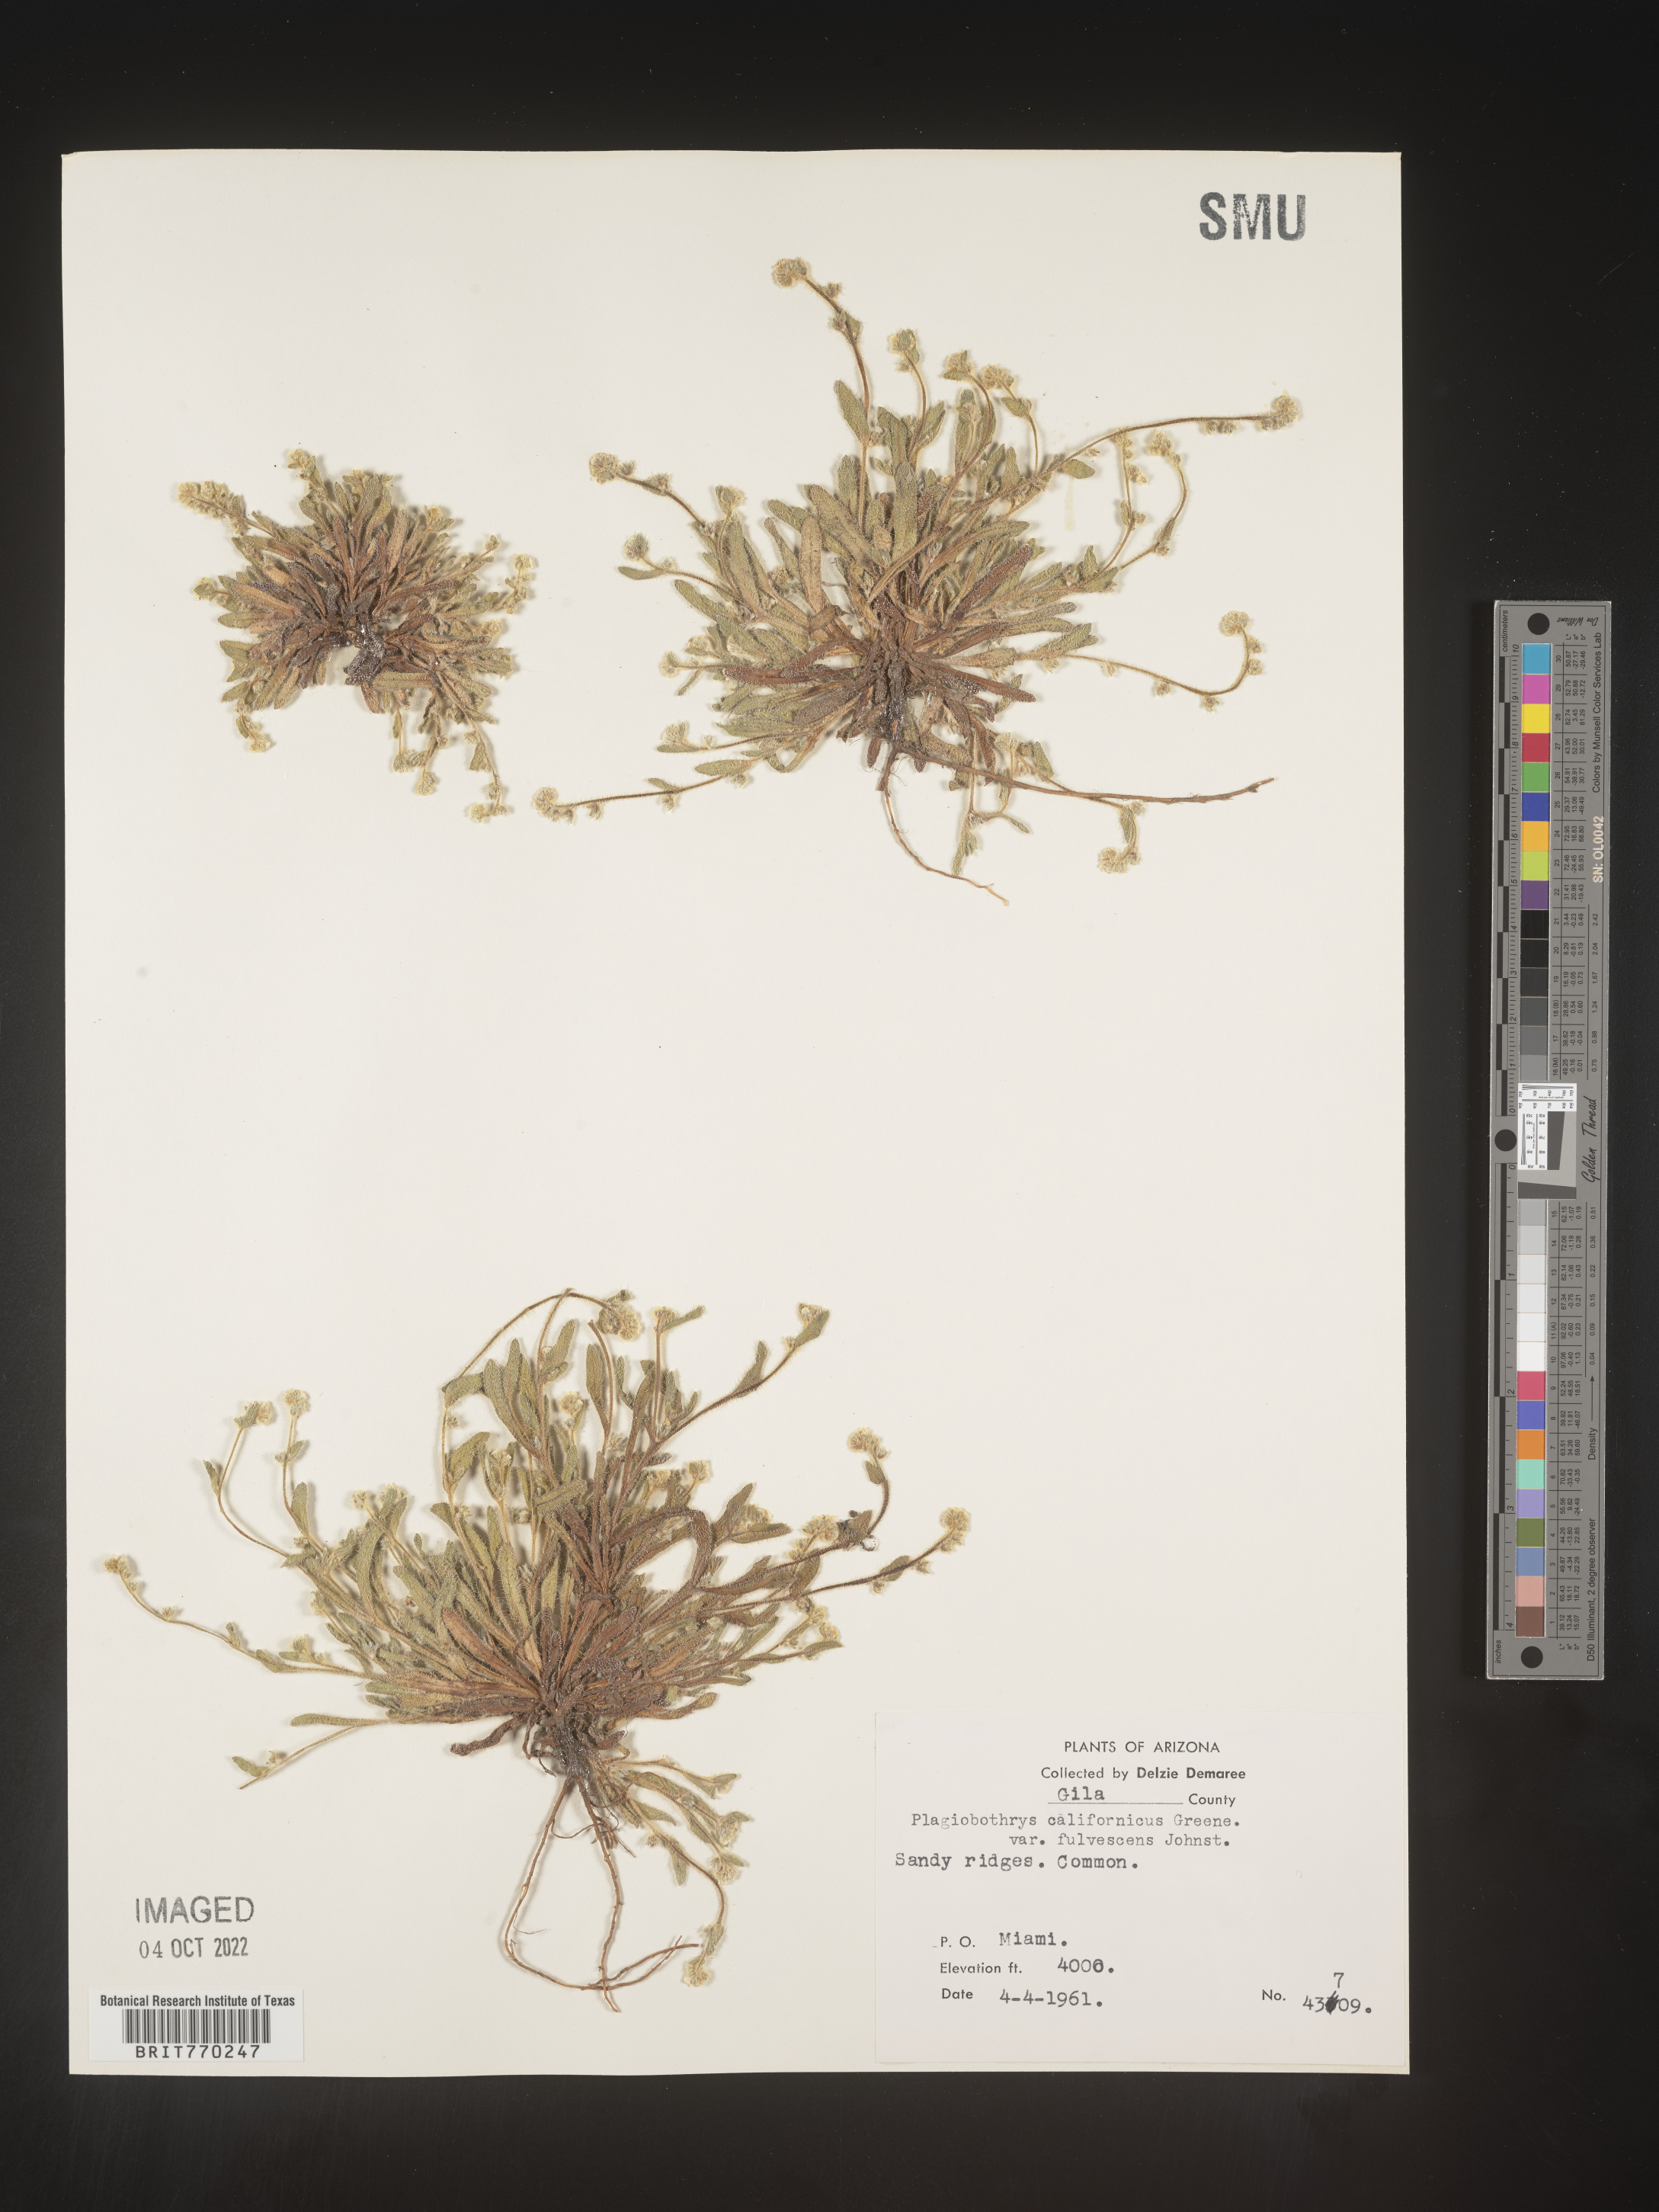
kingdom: Plantae
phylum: Tracheophyta
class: Magnoliopsida
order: Boraginales
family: Boraginaceae
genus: Plagiobothrys
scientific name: Plagiobothrys
